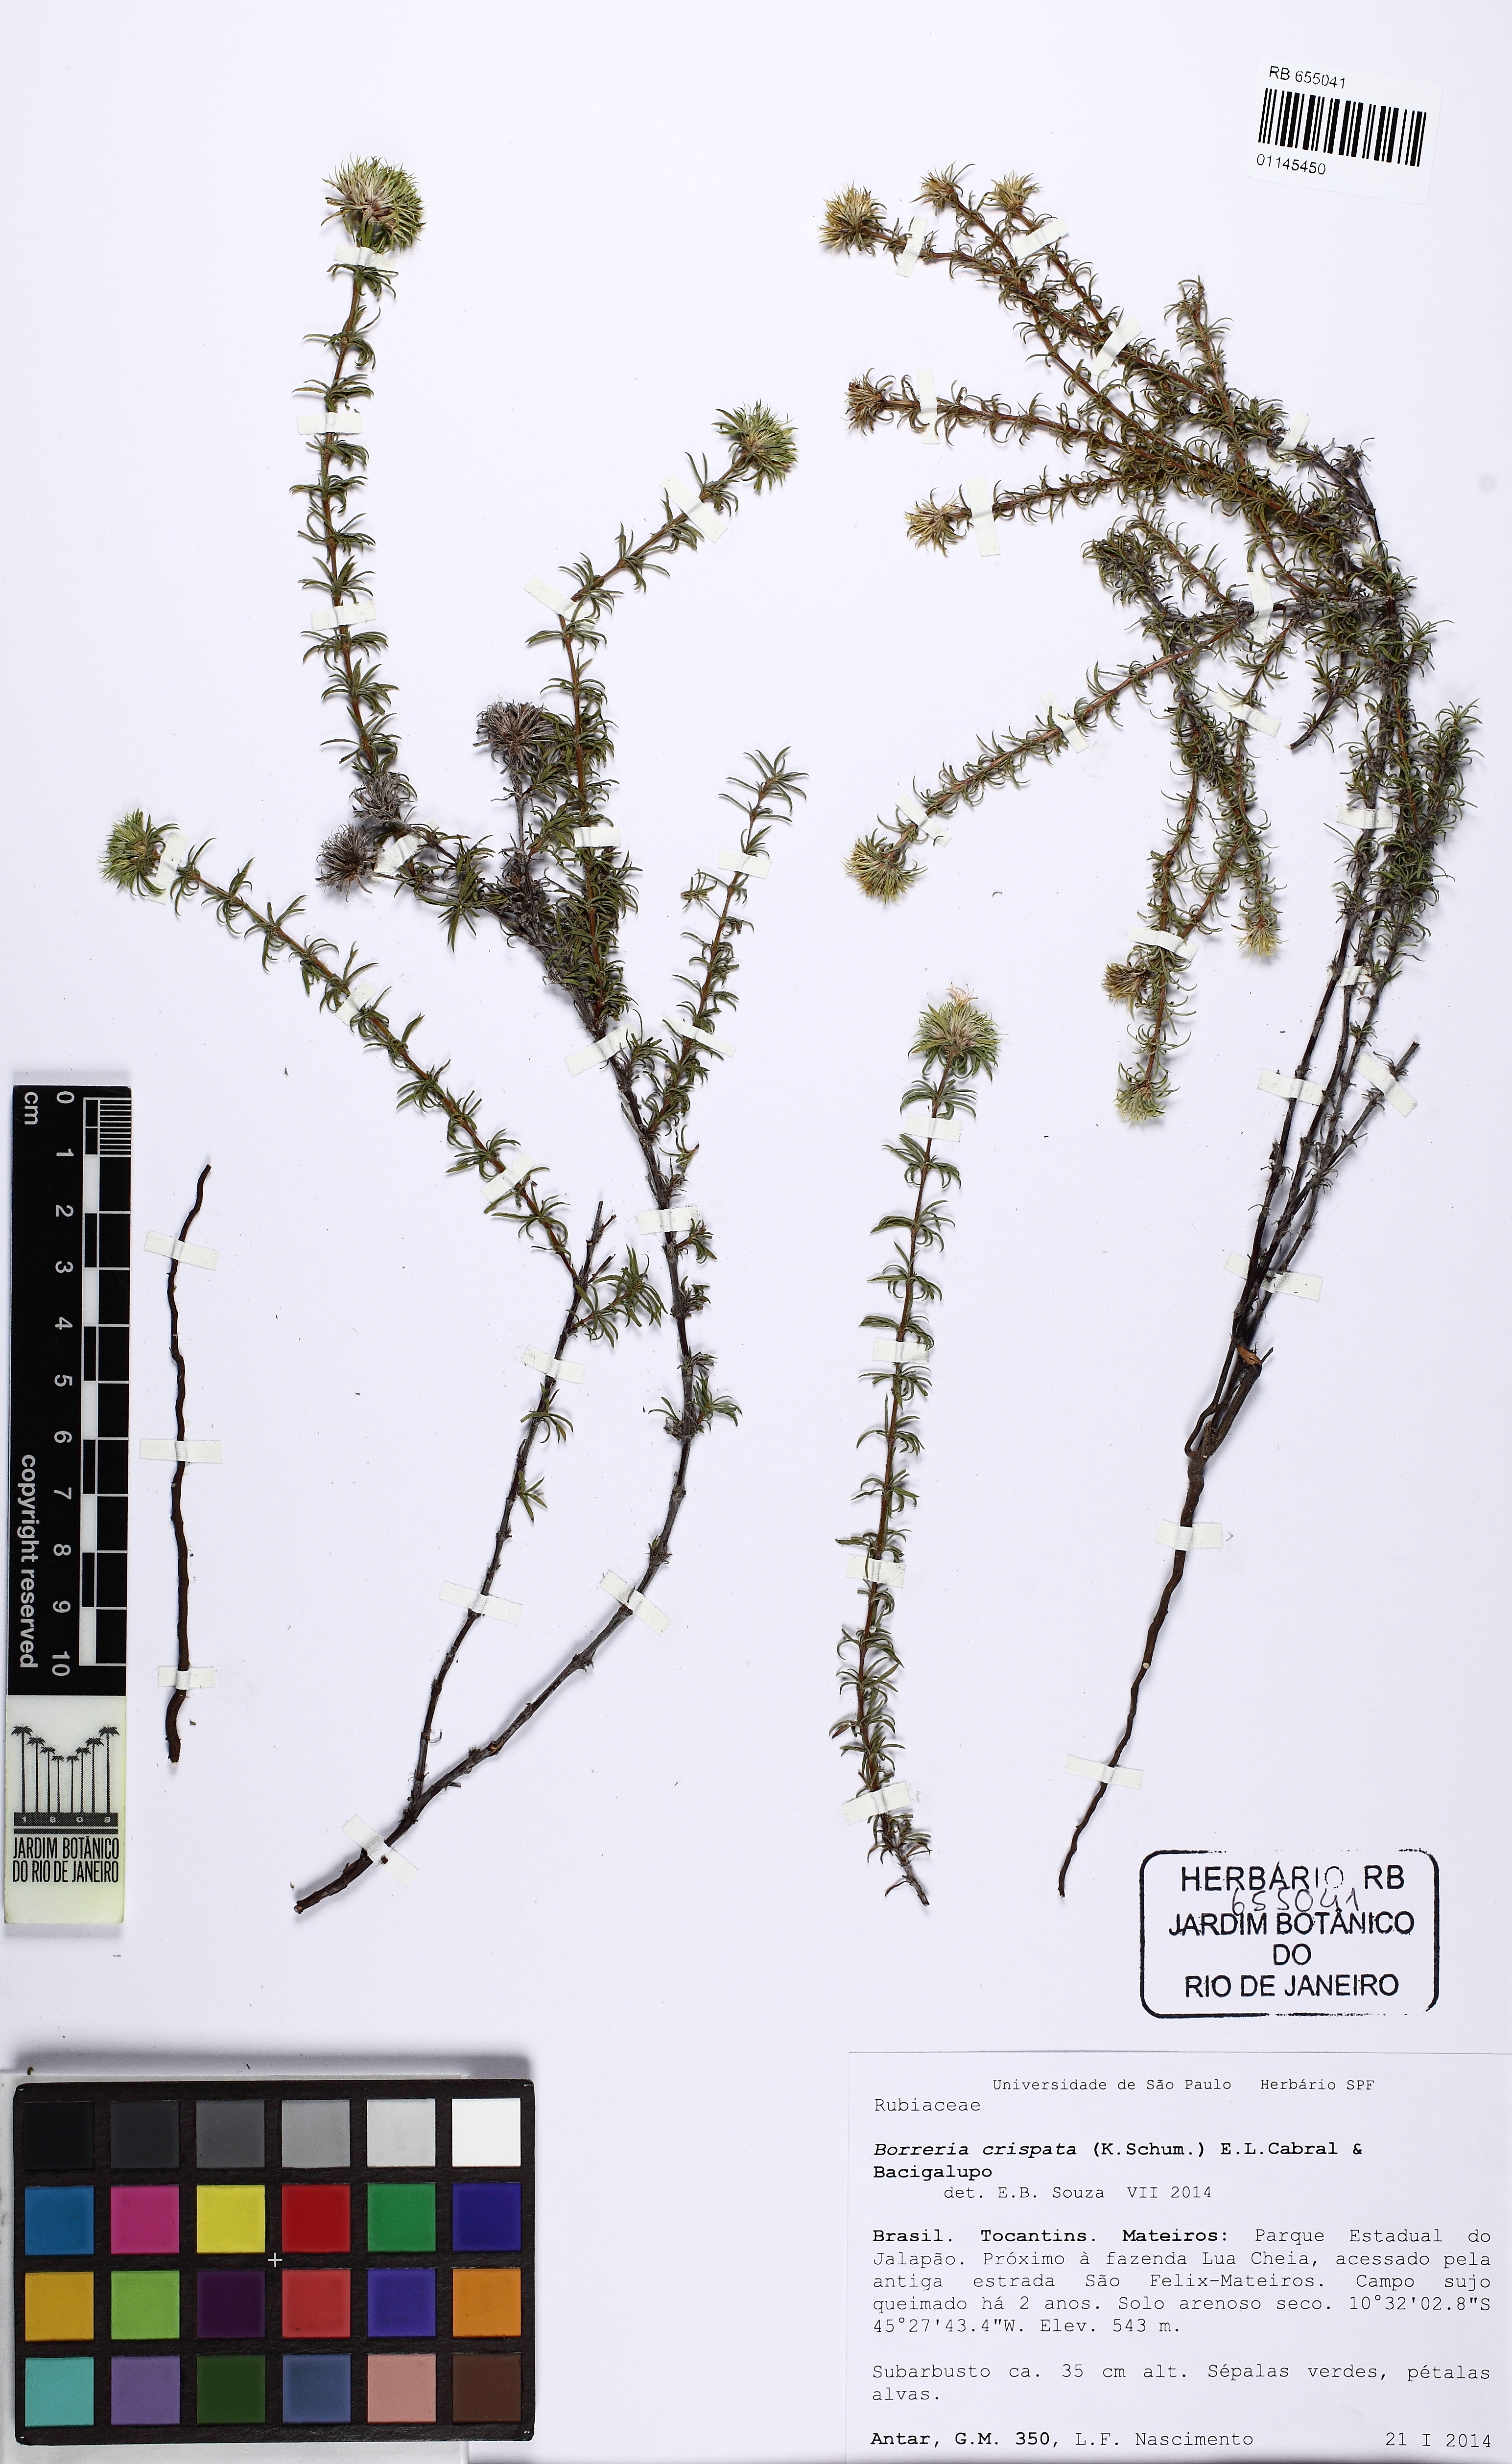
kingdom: Plantae
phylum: Tracheophyta
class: Magnoliopsida
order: Gentianales
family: Rubiaceae
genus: Spermacoce
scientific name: Spermacoce crispata
